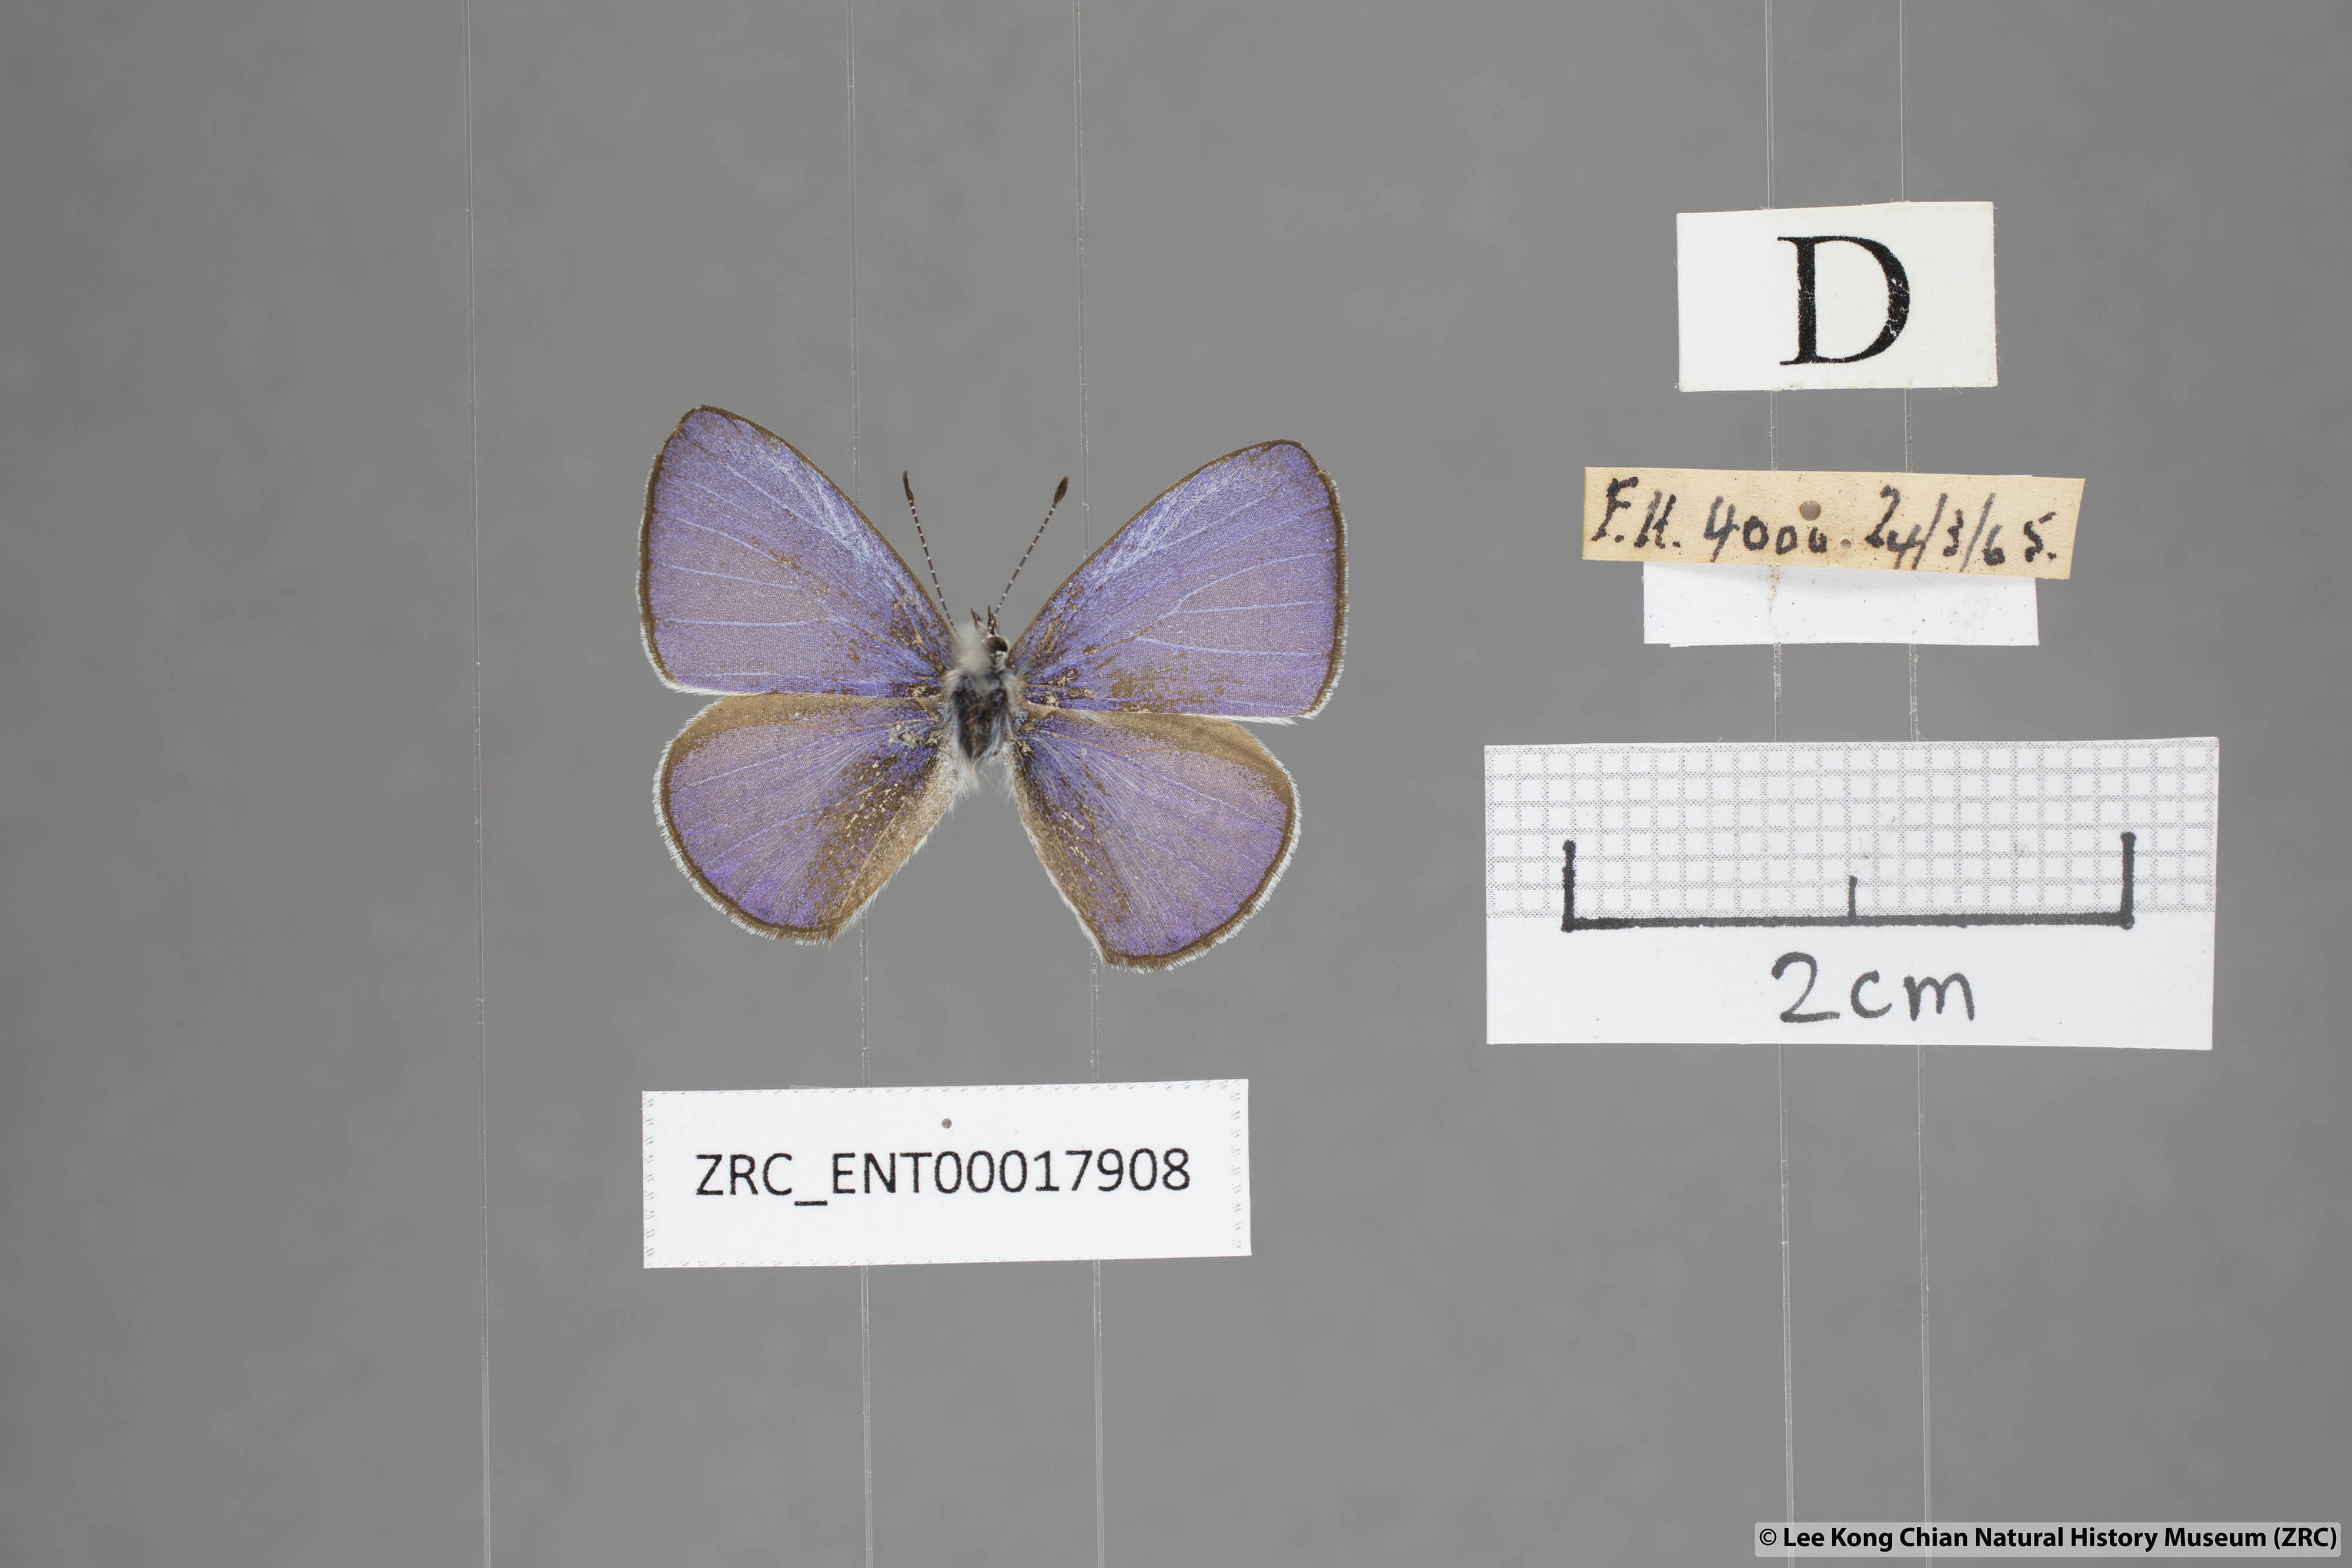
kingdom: Animalia
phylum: Arthropoda
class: Insecta
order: Lepidoptera
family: Lycaenidae
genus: Udara
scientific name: Udara
